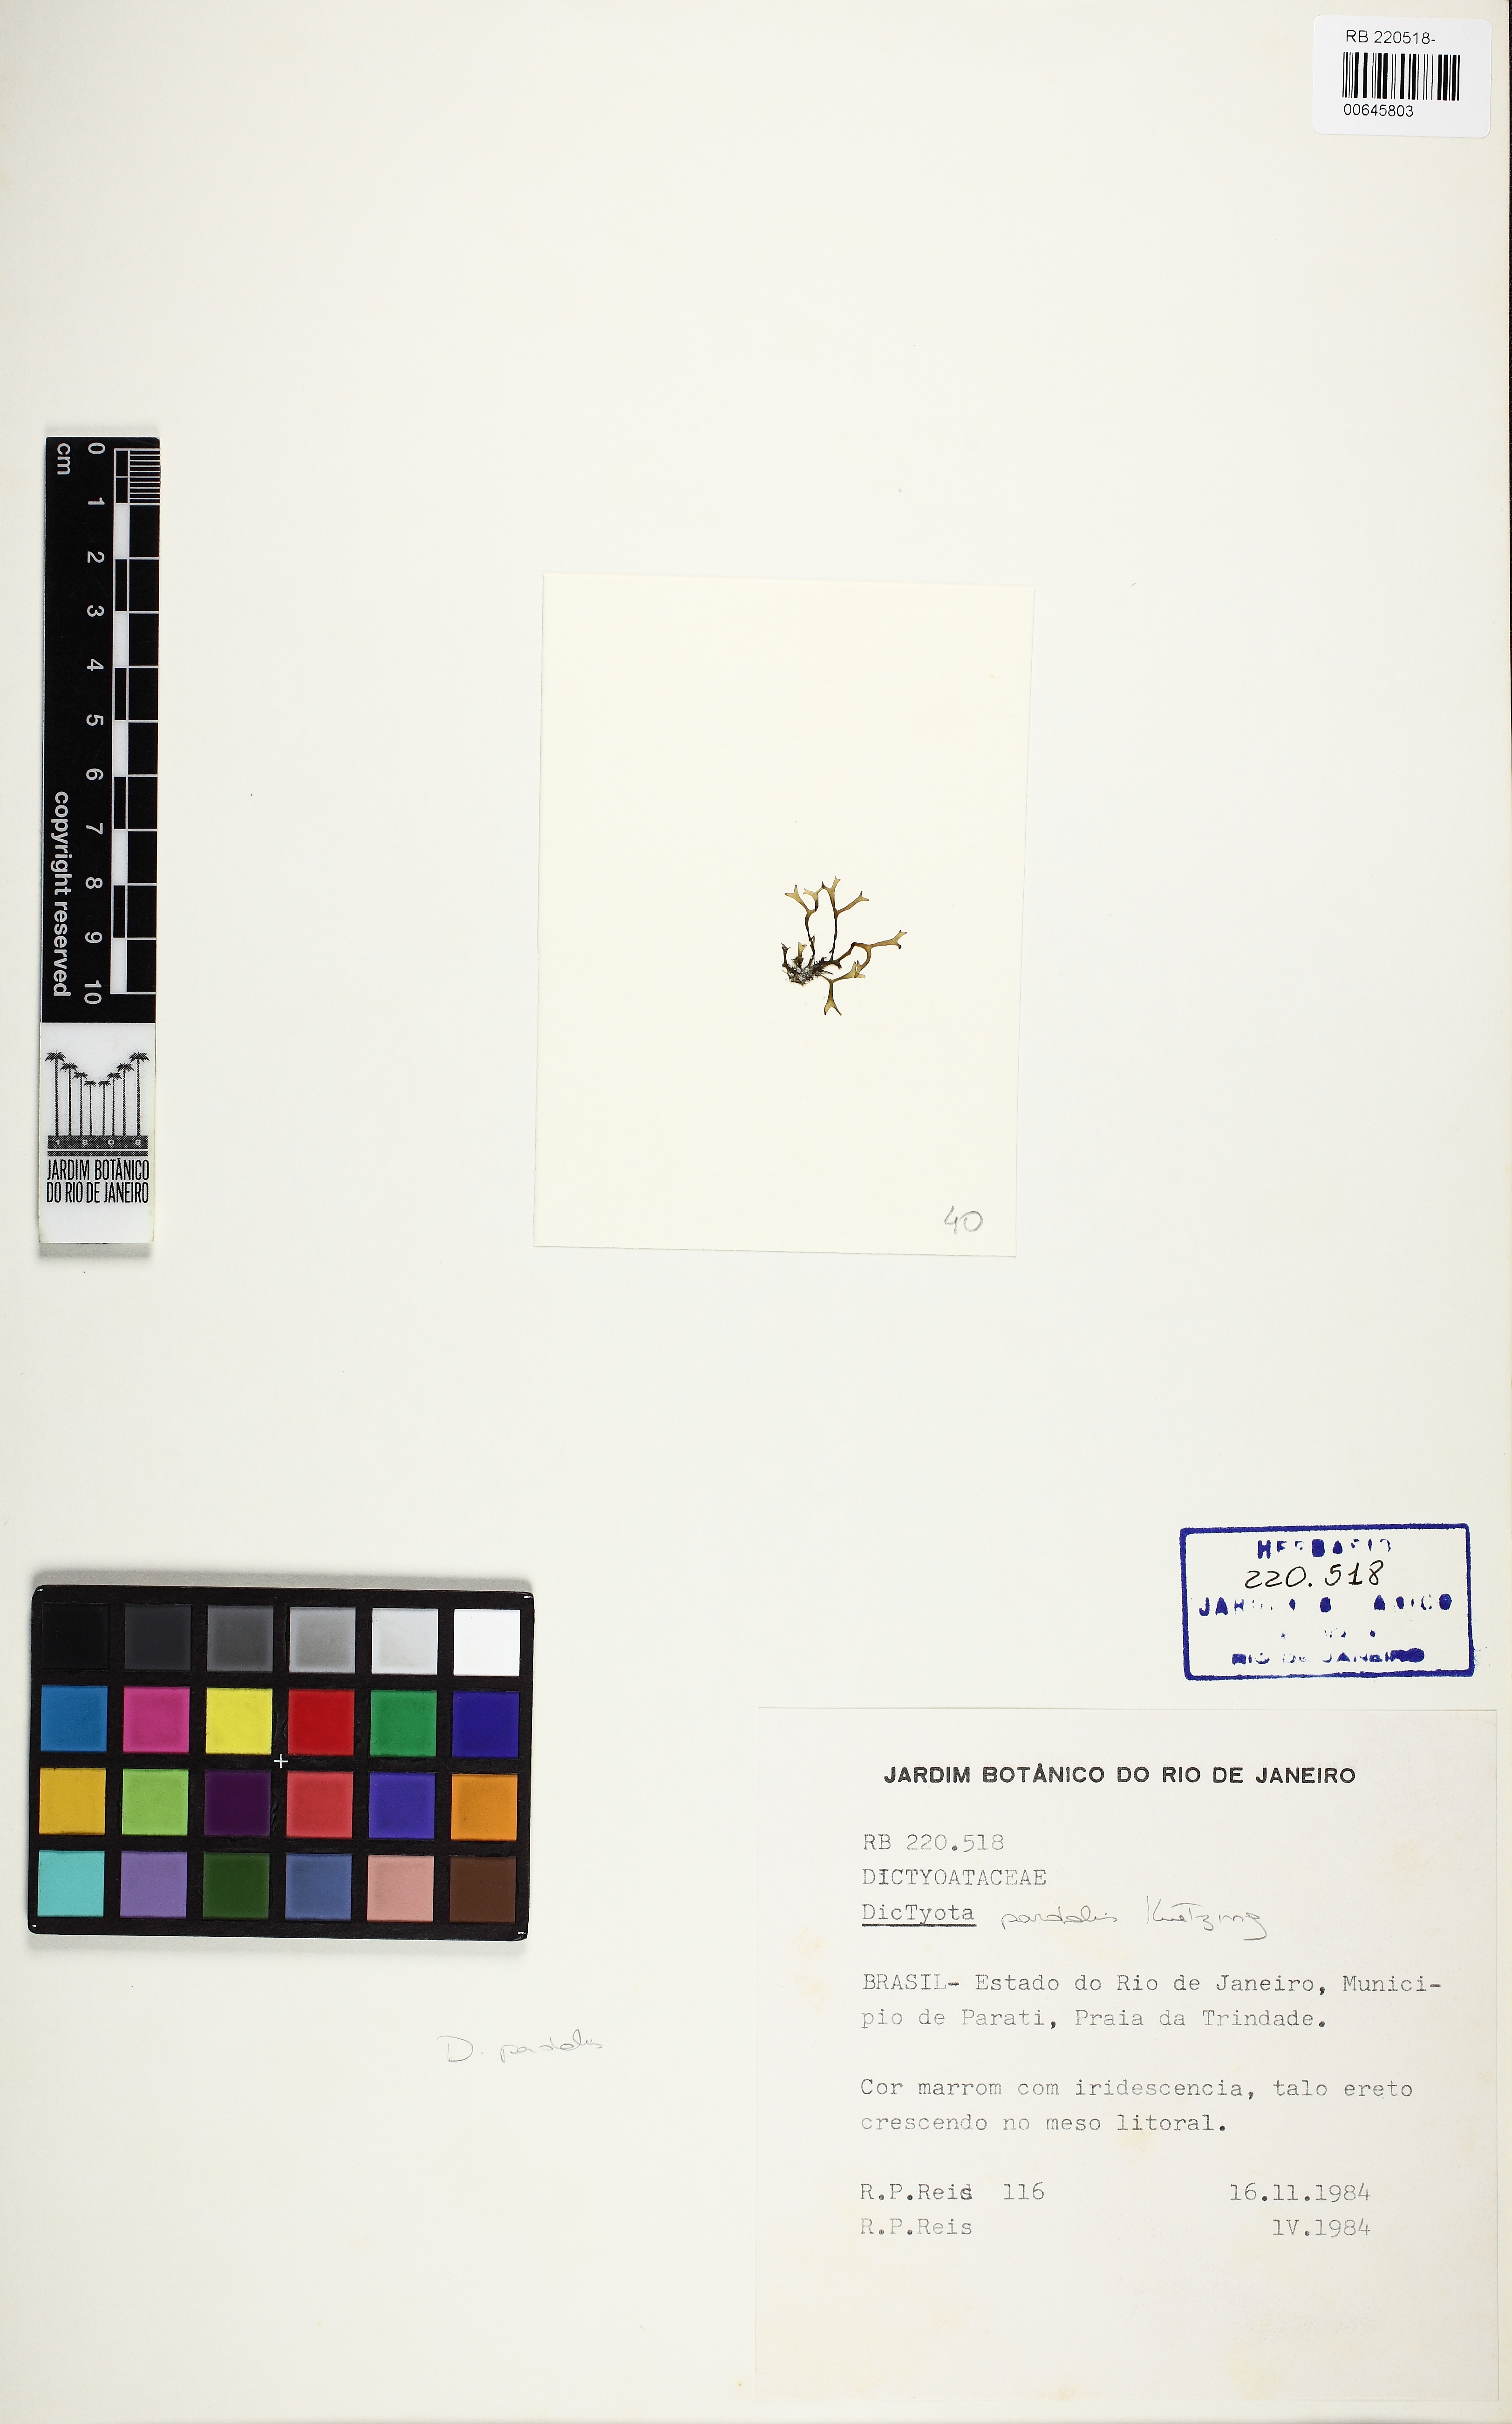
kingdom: Chromista
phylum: Ochrophyta
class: Phaeophyceae
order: Dictyotales
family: Dictyotaceae
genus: Canistrocarpus
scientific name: Canistrocarpus cervicornis
